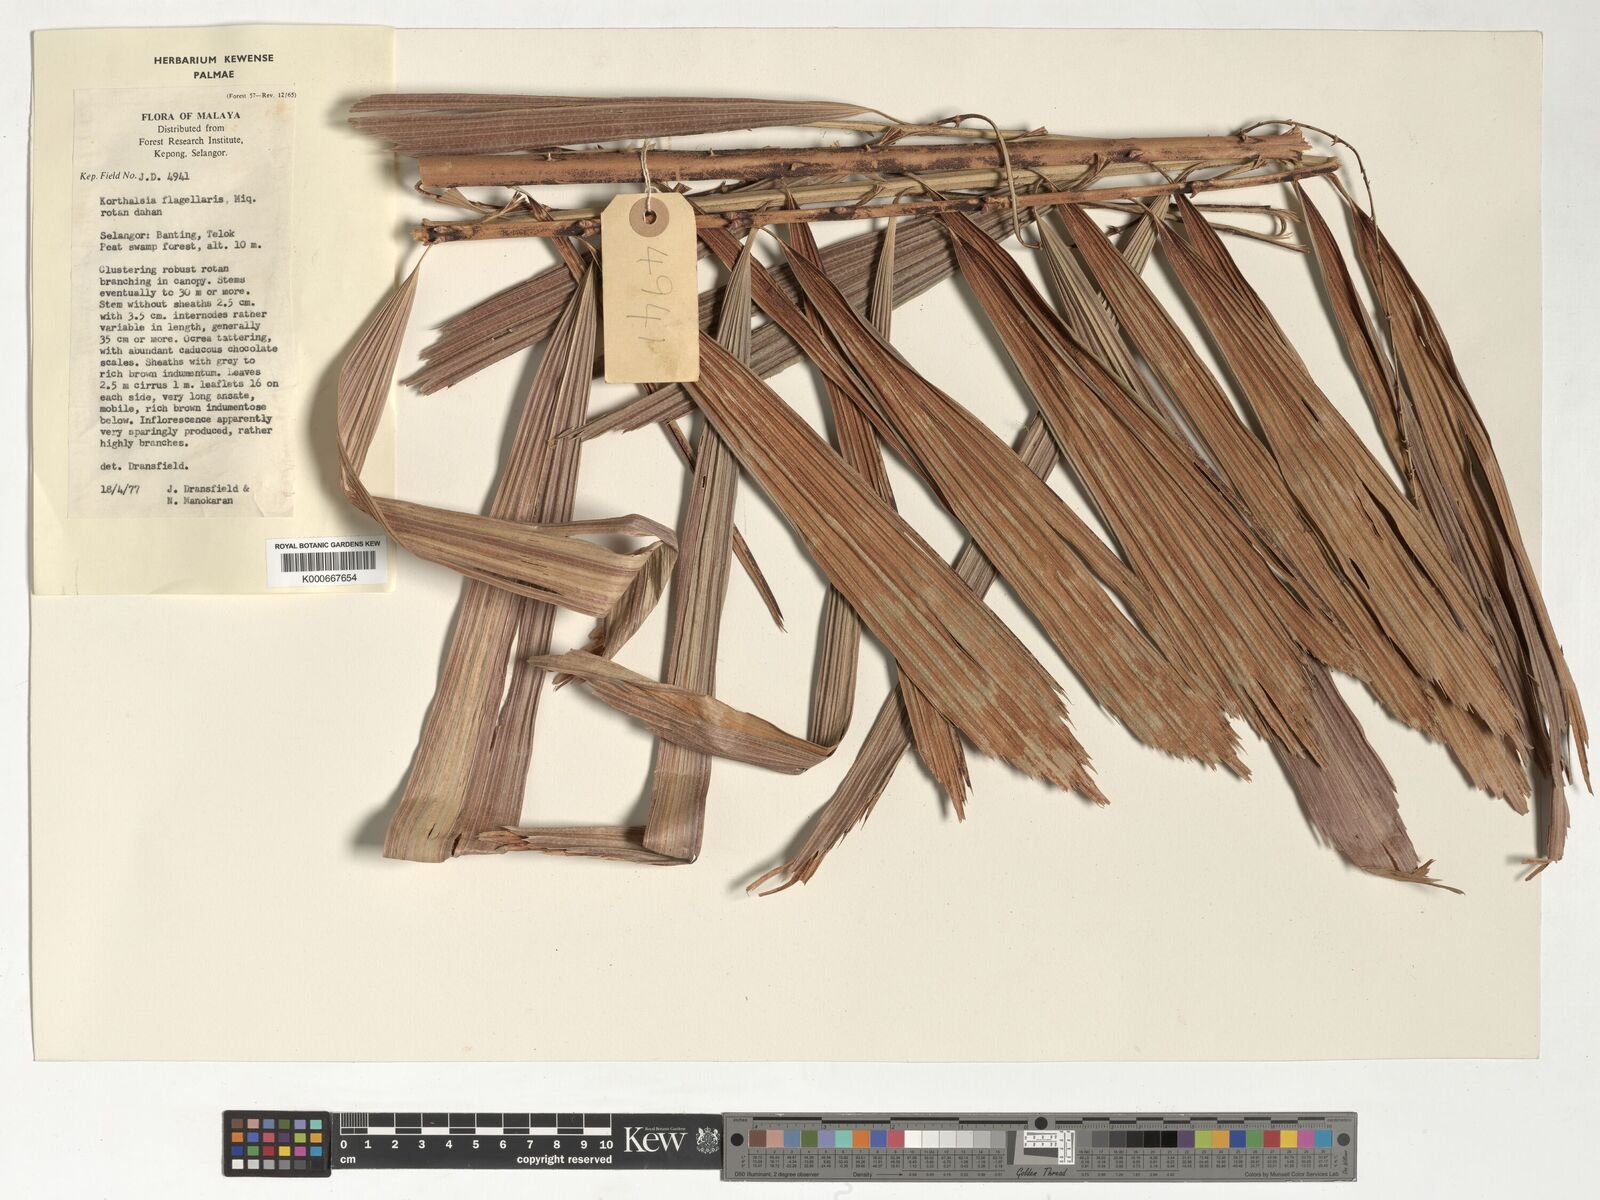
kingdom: Plantae
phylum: Tracheophyta
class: Liliopsida
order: Arecales
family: Arecaceae
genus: Korthalsia
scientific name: Korthalsia flagellaris
